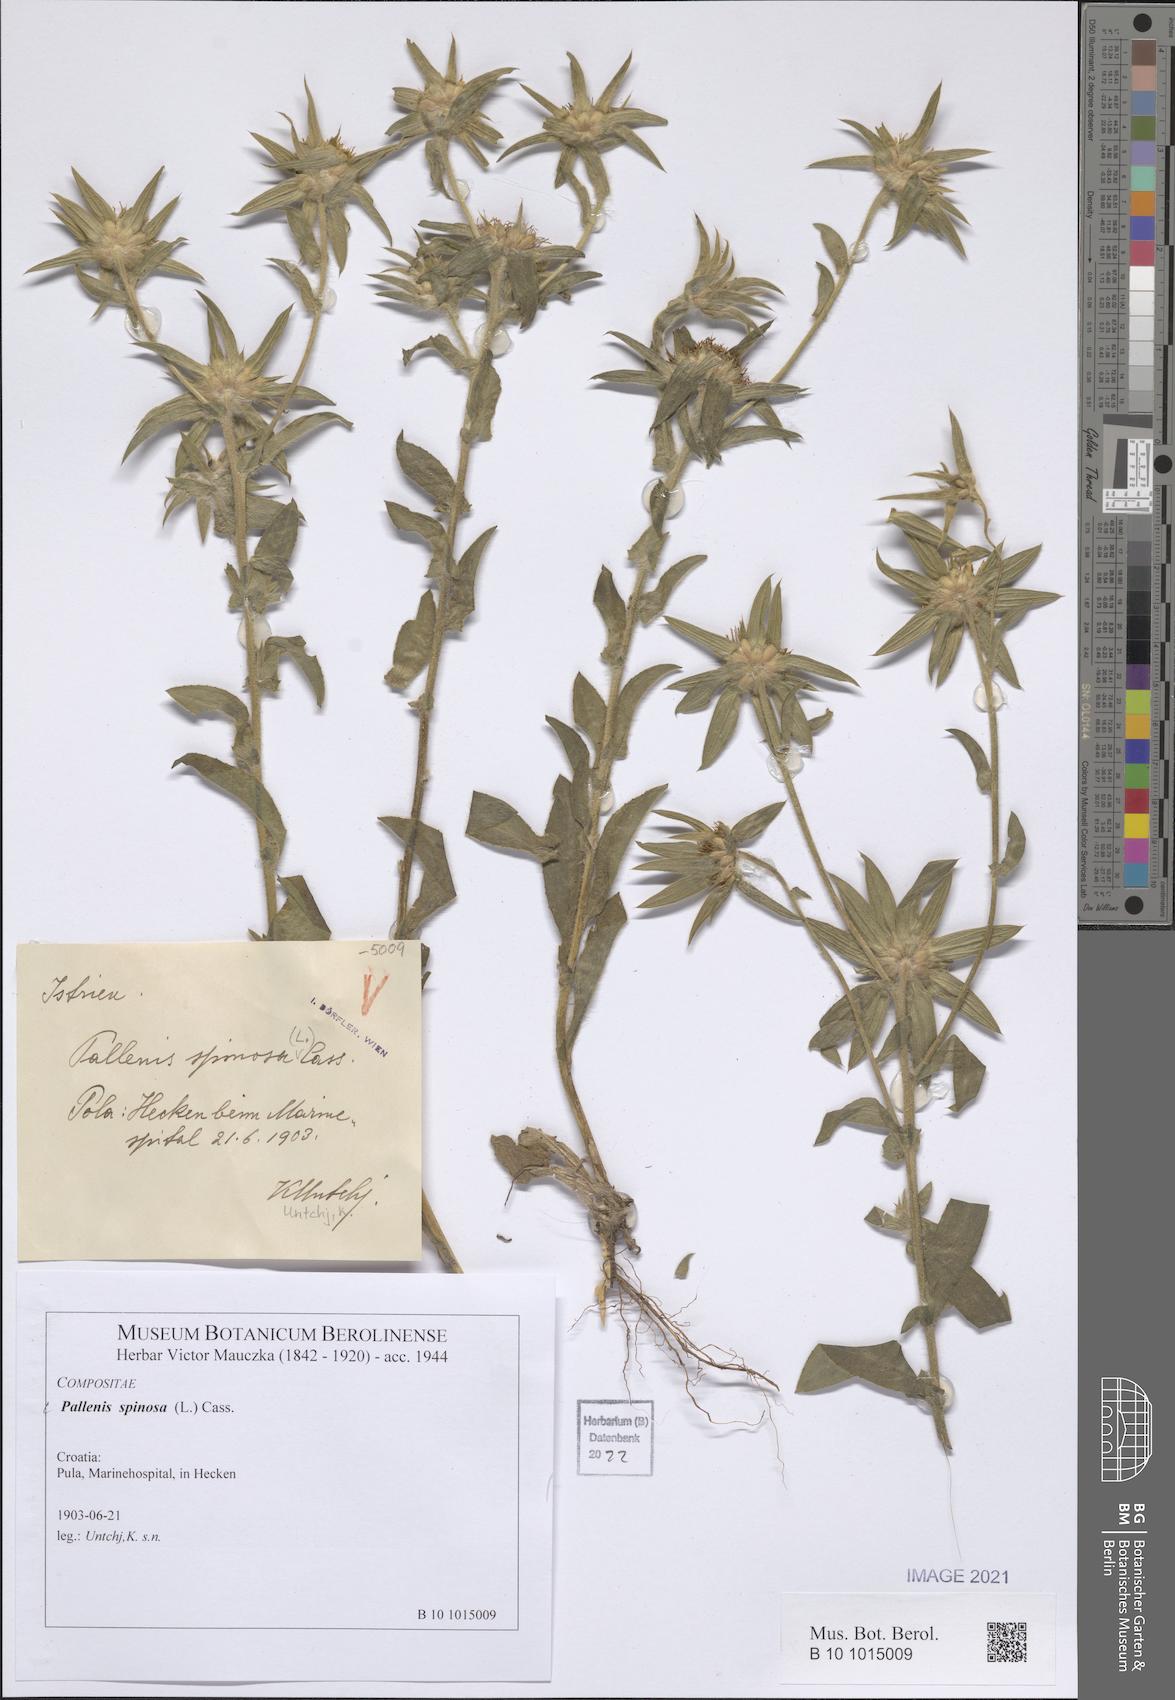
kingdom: Plantae
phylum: Tracheophyta
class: Magnoliopsida
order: Asterales
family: Asteraceae
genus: Pallenis
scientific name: Pallenis spinosa
